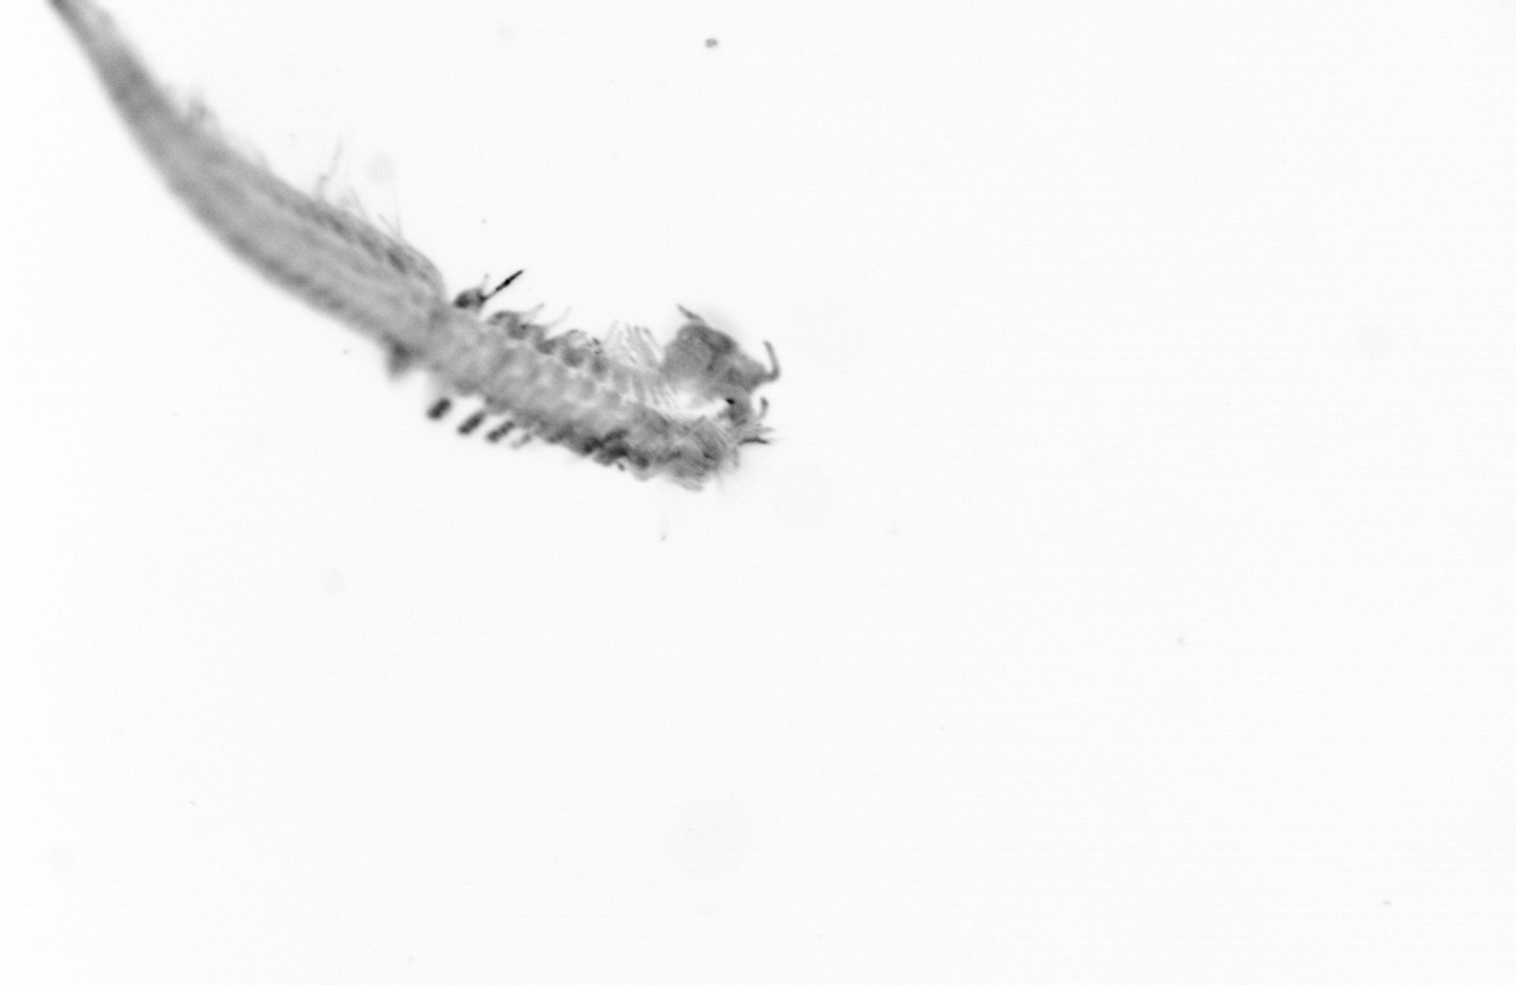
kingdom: Animalia
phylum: Annelida
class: Polychaeta
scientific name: Polychaeta
